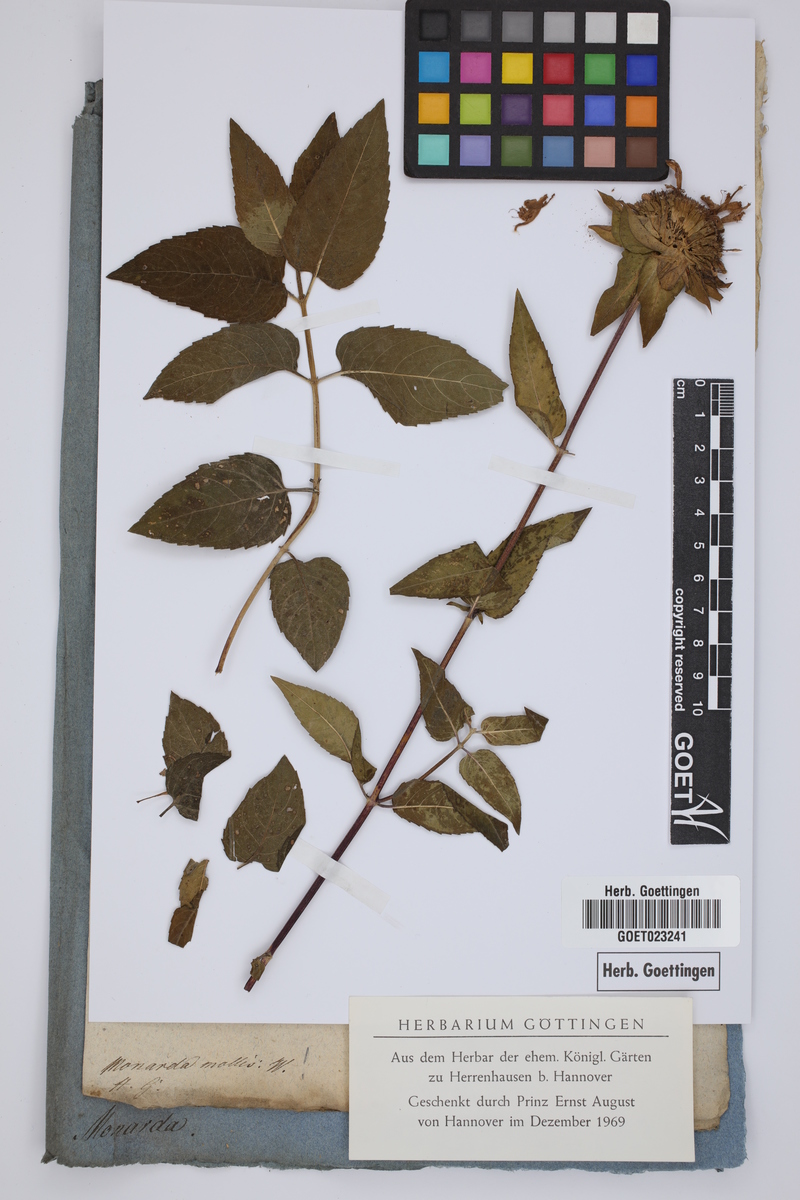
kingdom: Plantae
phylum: Tracheophyta
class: Magnoliopsida
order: Lamiales
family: Lamiaceae
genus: Monarda
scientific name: Monarda fistulosa
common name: Purple beebalm
